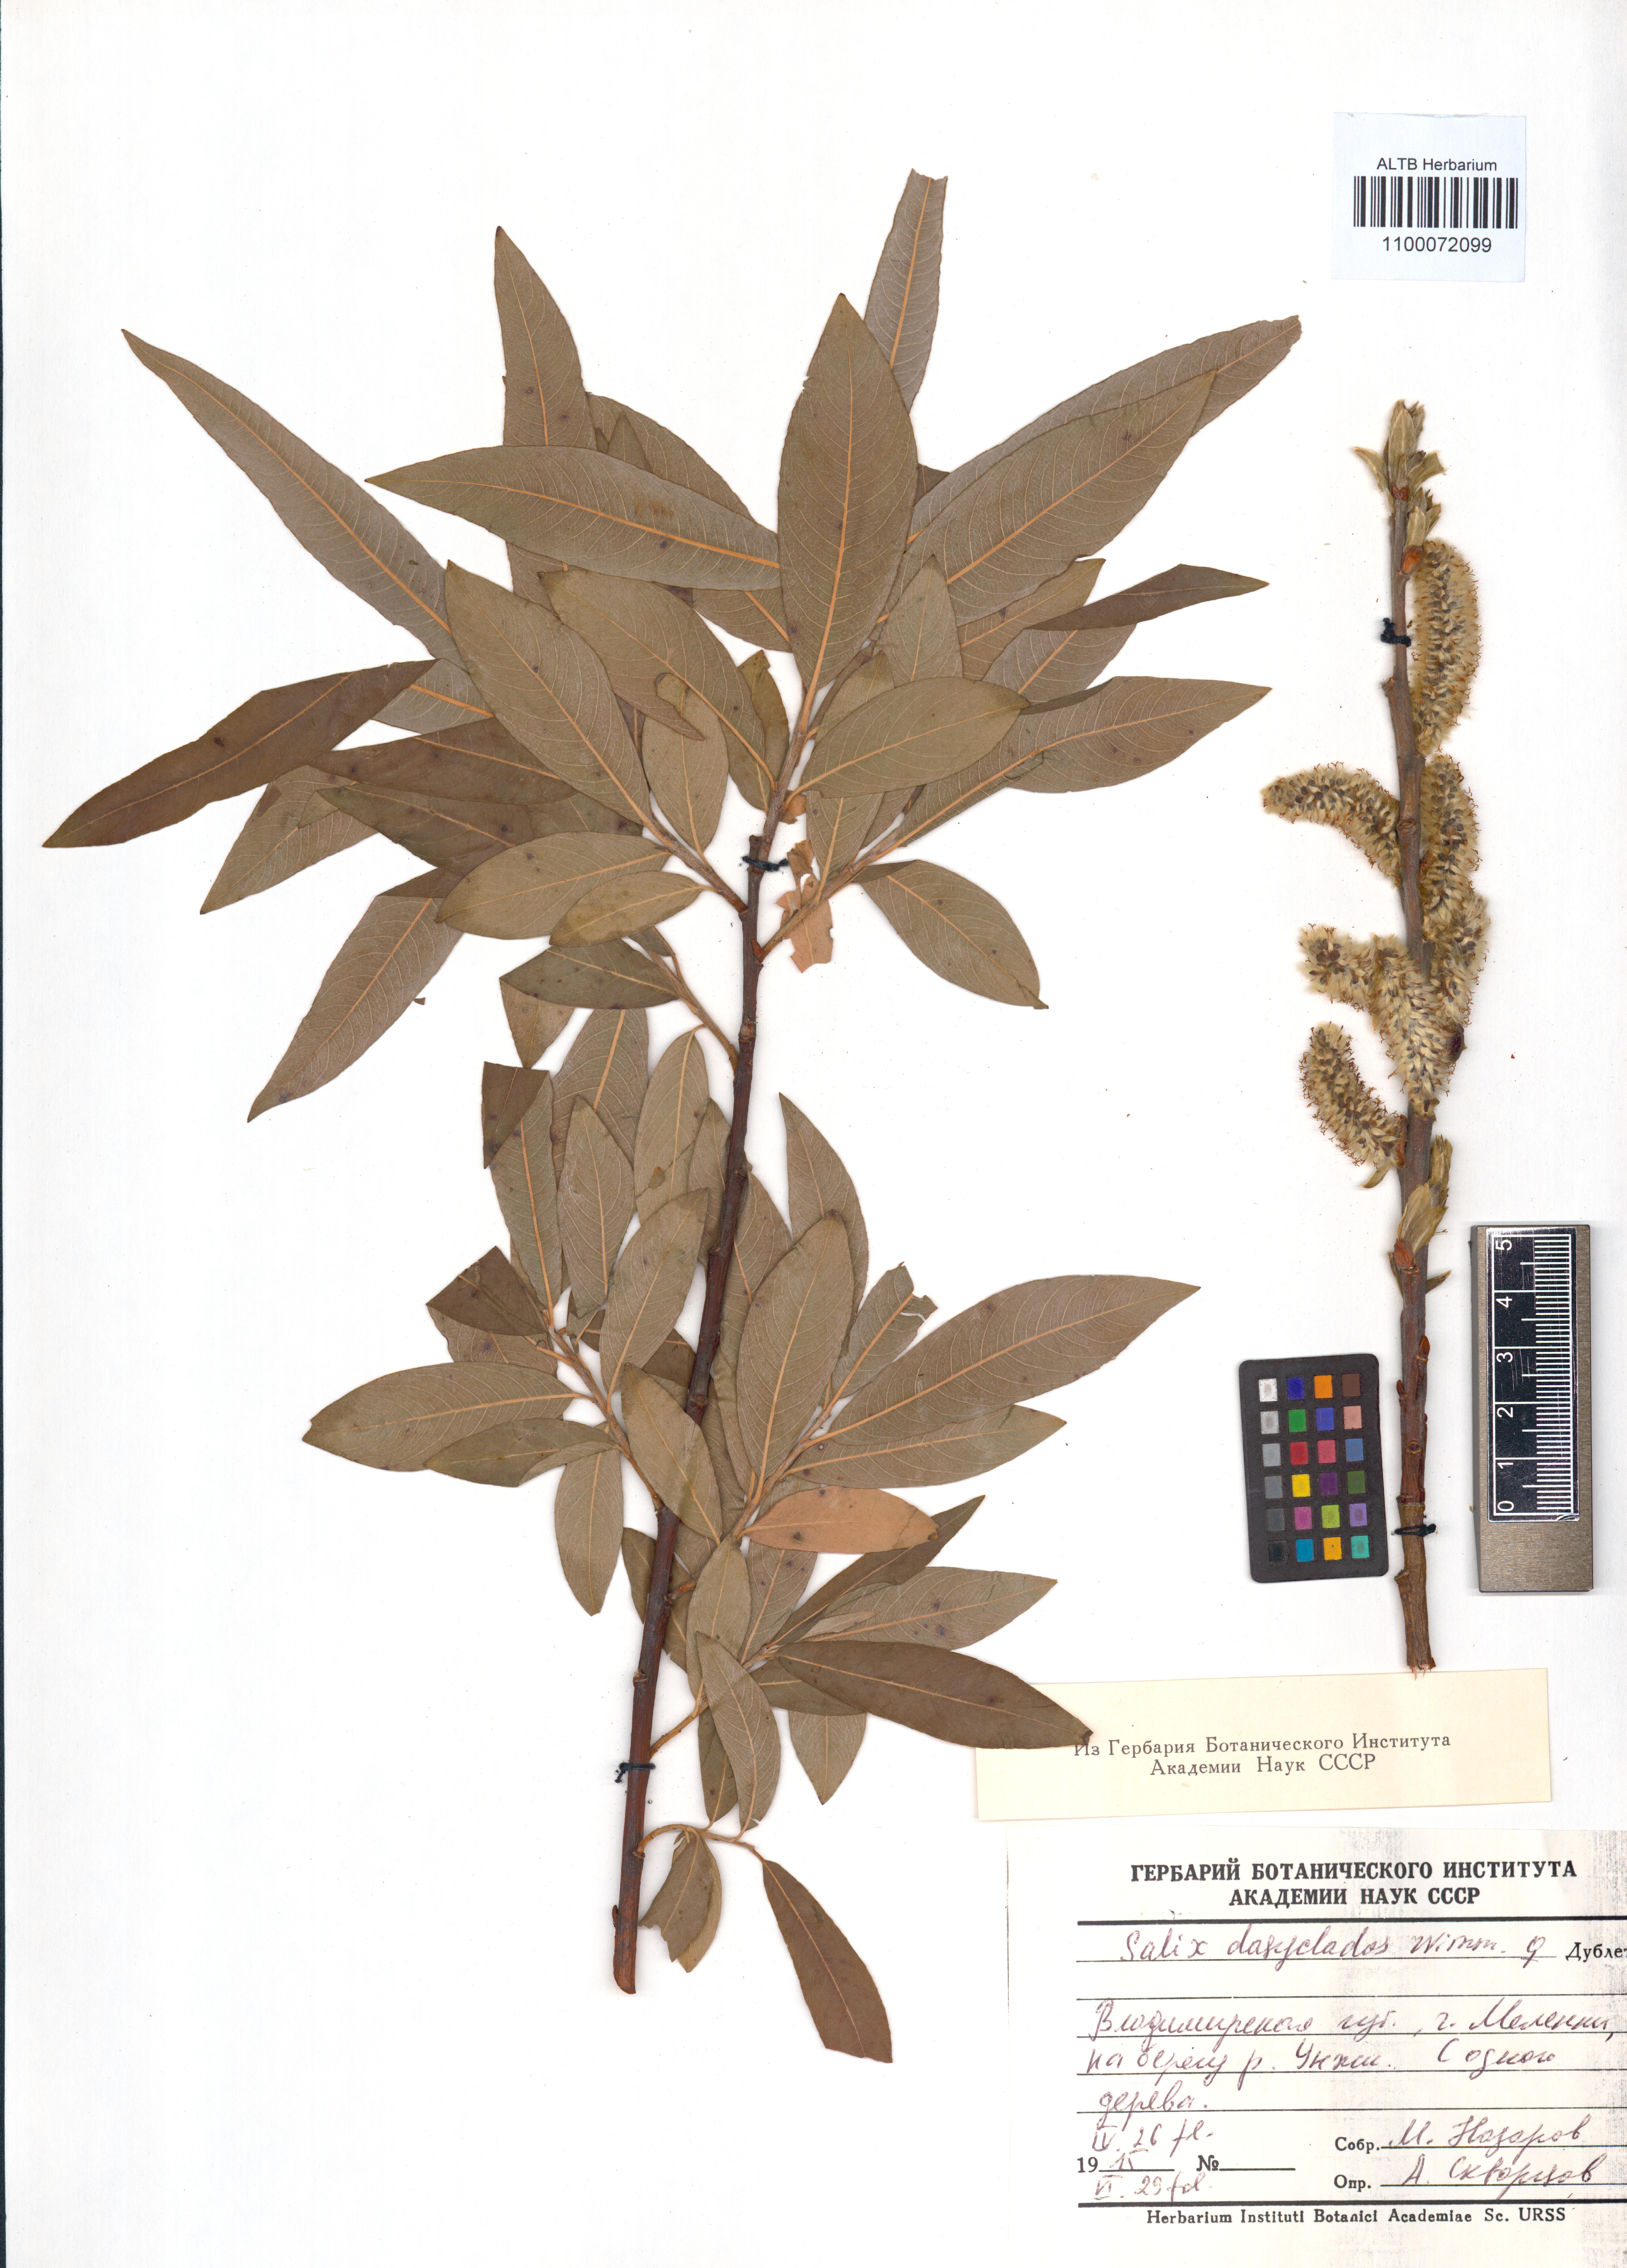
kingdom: Plantae
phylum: Tracheophyta
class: Magnoliopsida
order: Malpighiales
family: Salicaceae
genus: Salix
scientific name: Salix gmelinii
